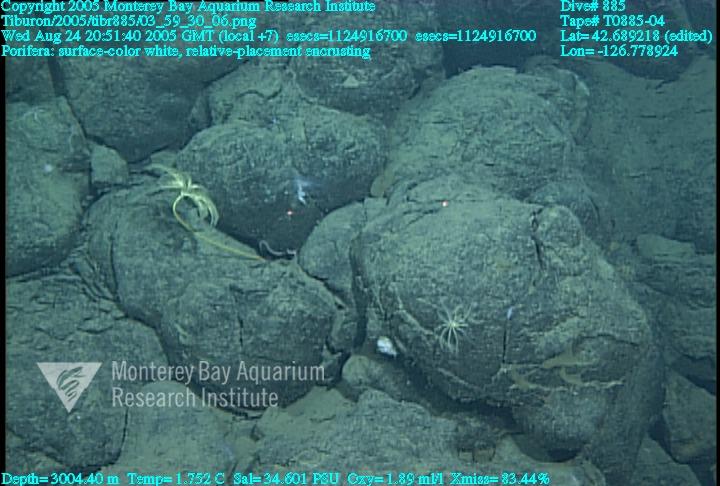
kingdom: Animalia
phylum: Porifera
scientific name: Porifera
